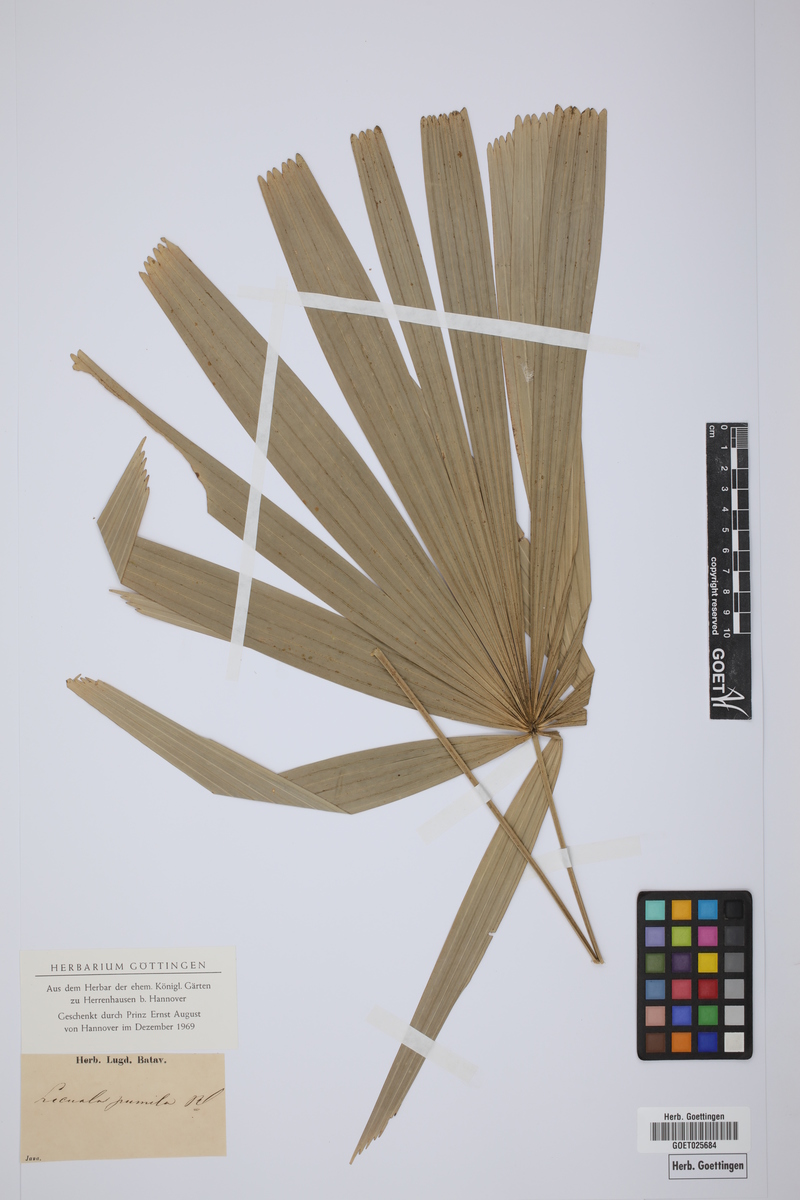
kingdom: Plantae
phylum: Tracheophyta
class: Liliopsida
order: Arecales
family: Arecaceae
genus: Licuala
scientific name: Licuala pumila
